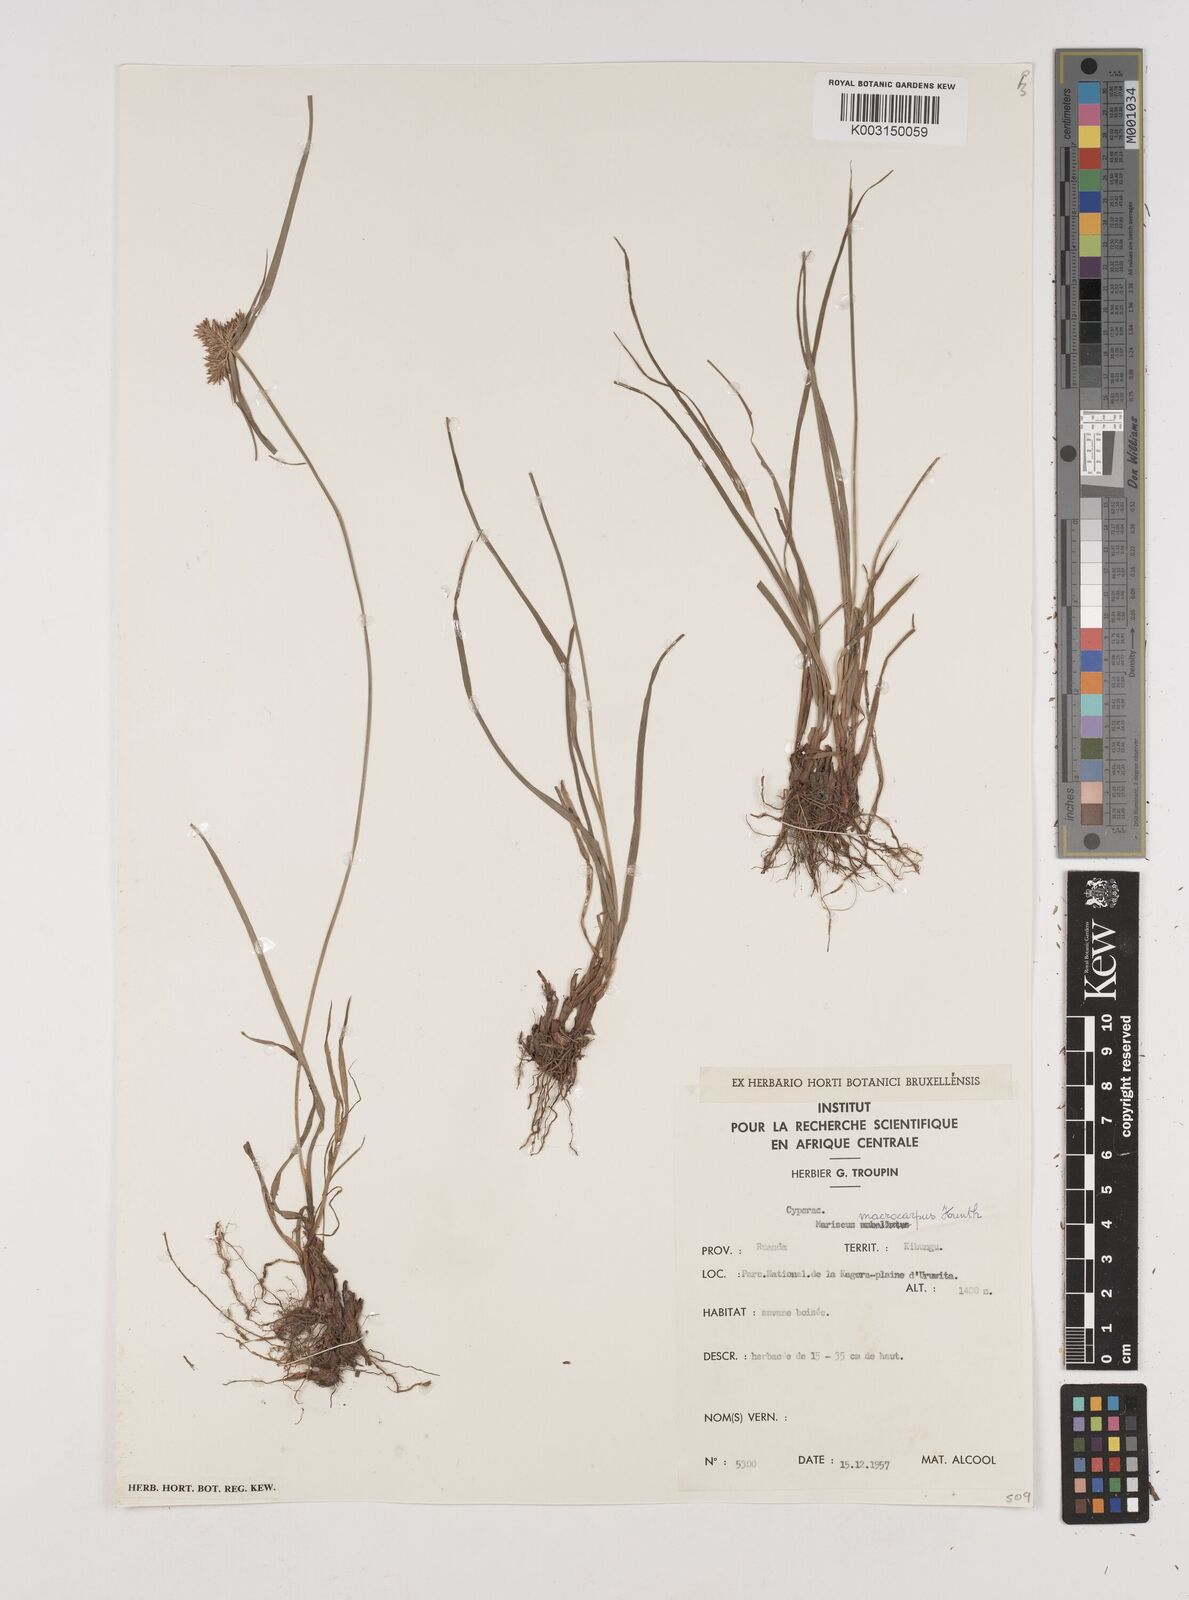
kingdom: Plantae
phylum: Tracheophyta
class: Liliopsida
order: Poales
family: Cyperaceae
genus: Cyperus
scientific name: Cyperus macrocarpus
